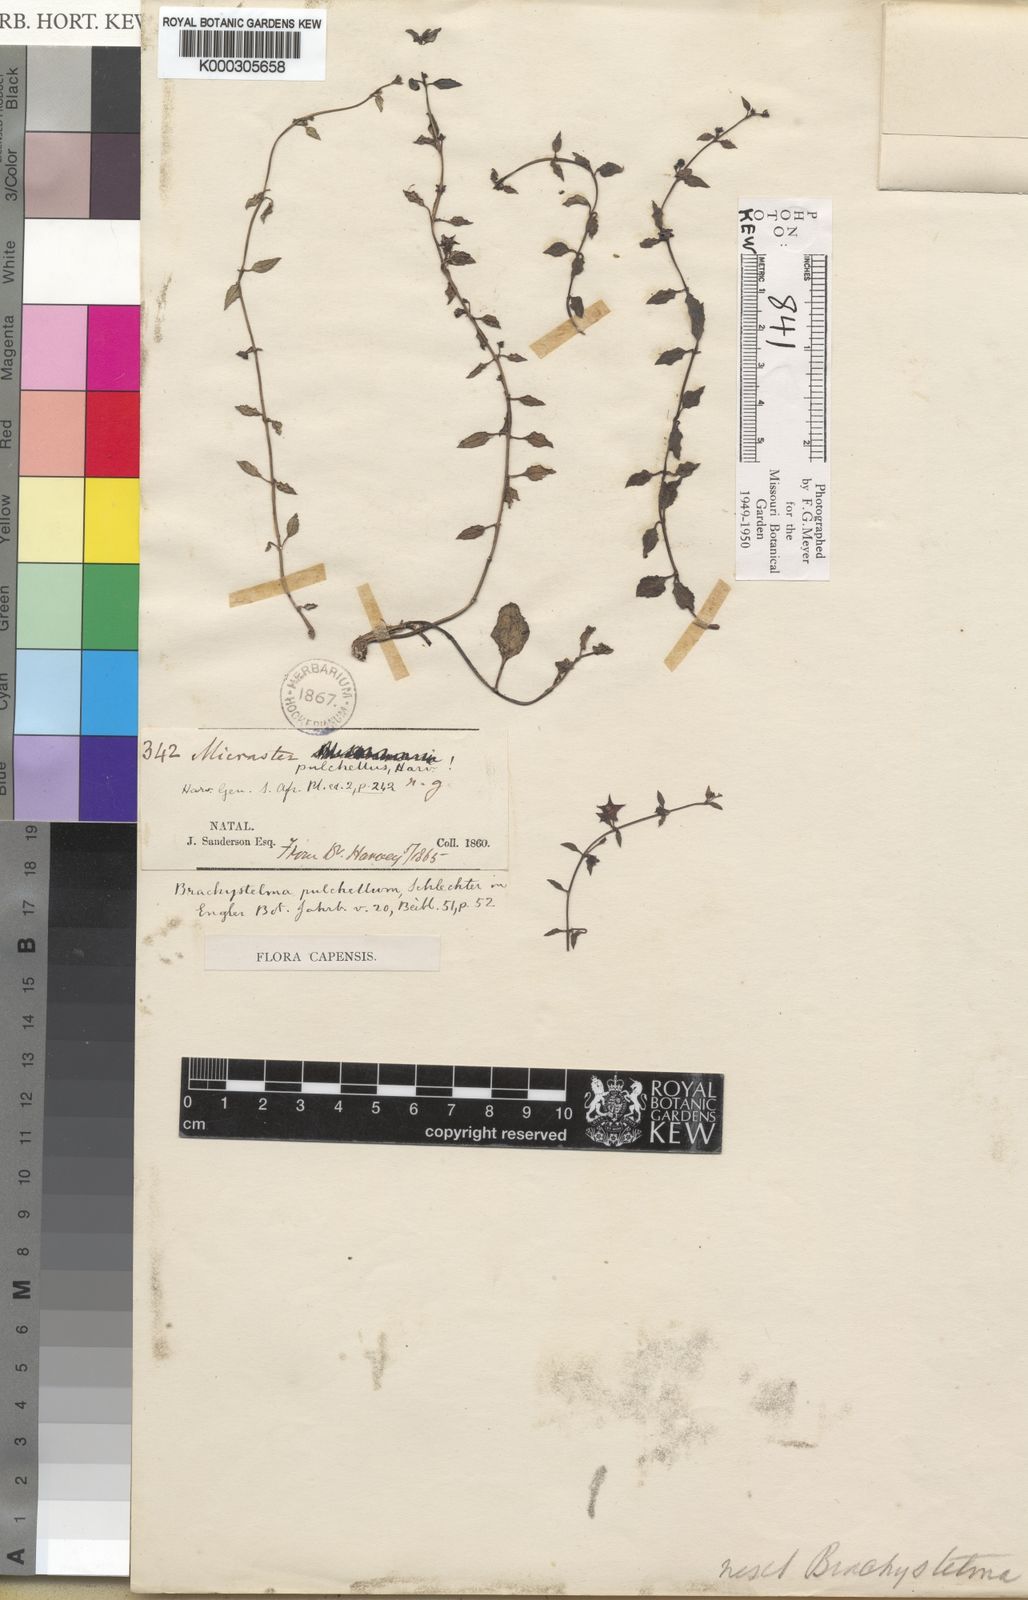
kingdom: Plantae
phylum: Tracheophyta
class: Magnoliopsida
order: Gentianales
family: Apocynaceae
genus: Ceropegia
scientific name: Ceropegia pulchellior
